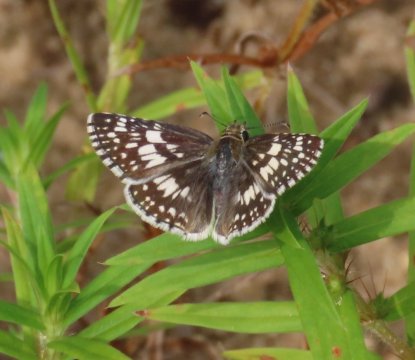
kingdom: Animalia
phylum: Arthropoda
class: Insecta
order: Lepidoptera
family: Hesperiidae
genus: Pyrgus
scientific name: Pyrgus communis
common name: White Checkered-Skipper
